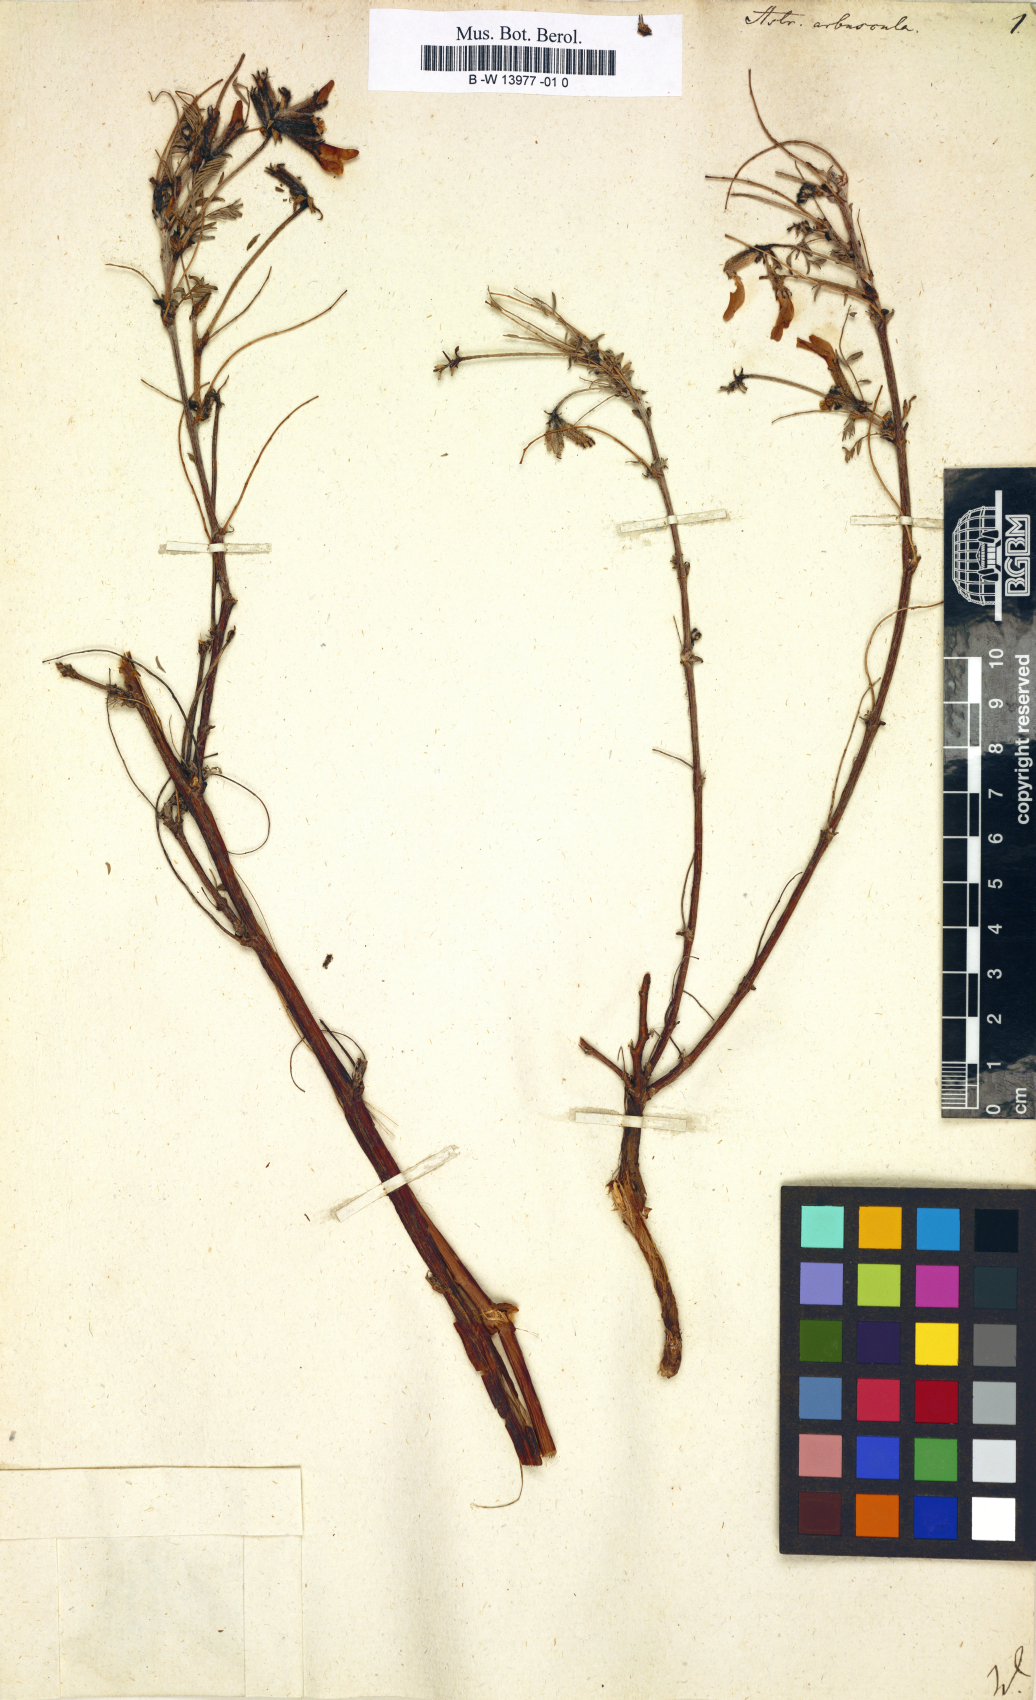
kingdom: Plantae
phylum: Tracheophyta
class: Magnoliopsida
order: Fabales
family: Fabaceae
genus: Astragalus
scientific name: Astragalus arbuscula
